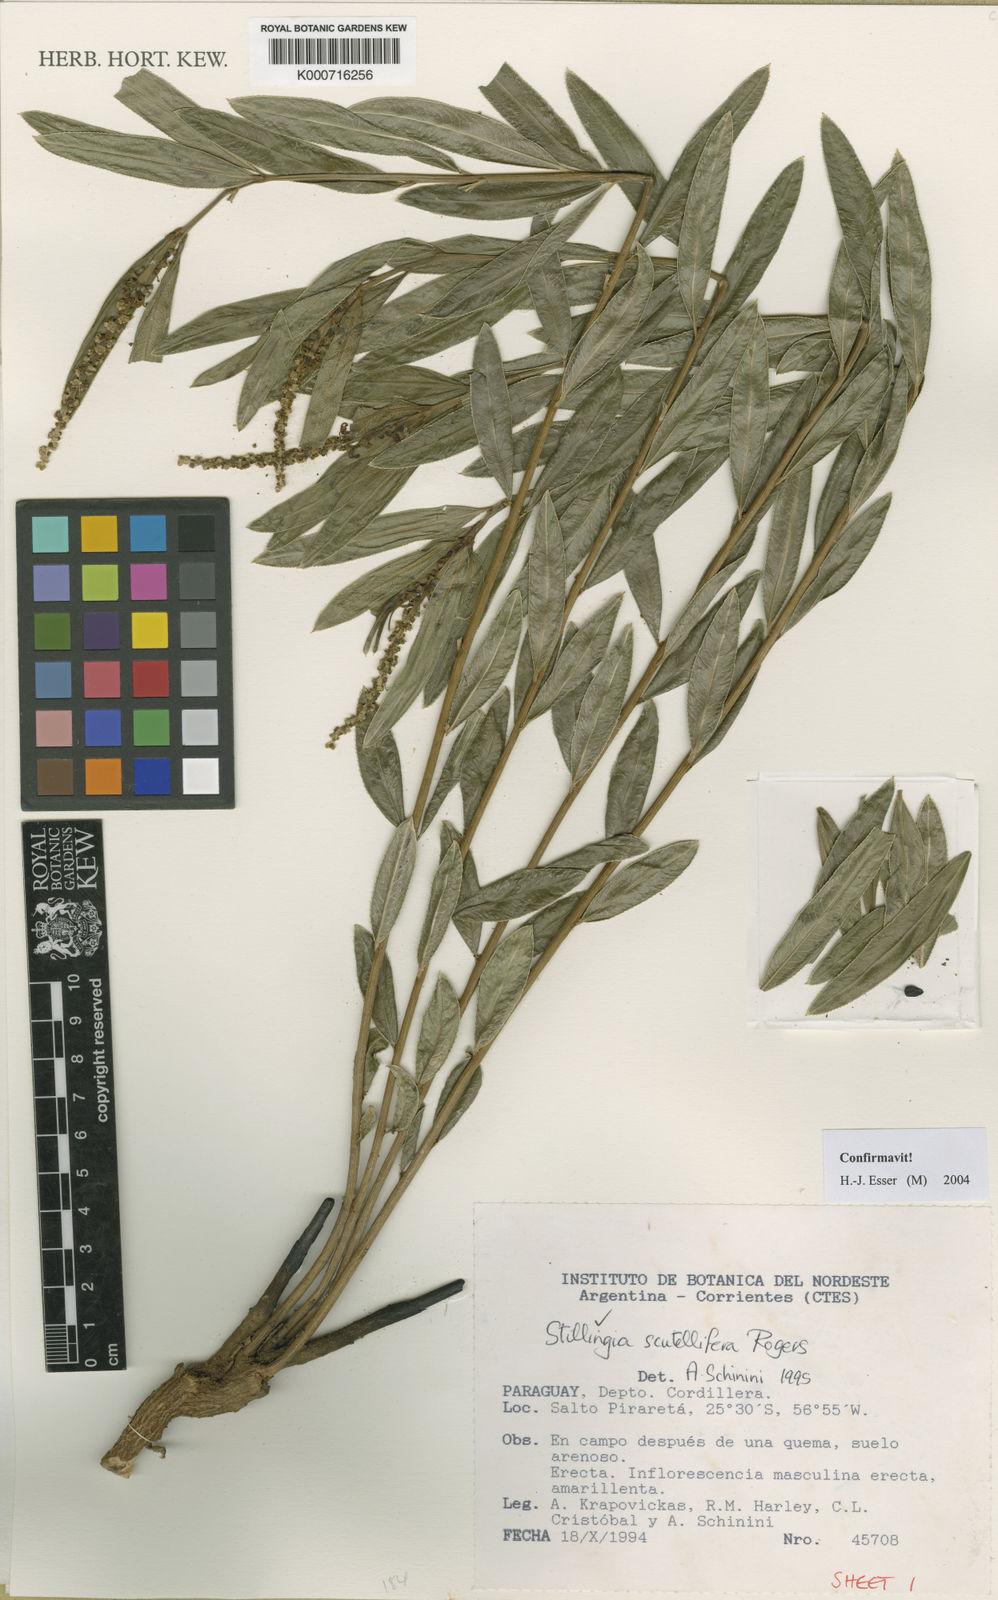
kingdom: Plantae
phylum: Tracheophyta
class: Magnoliopsida
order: Malpighiales
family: Euphorbiaceae
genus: Stillingia
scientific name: Stillingia salpingadenia
